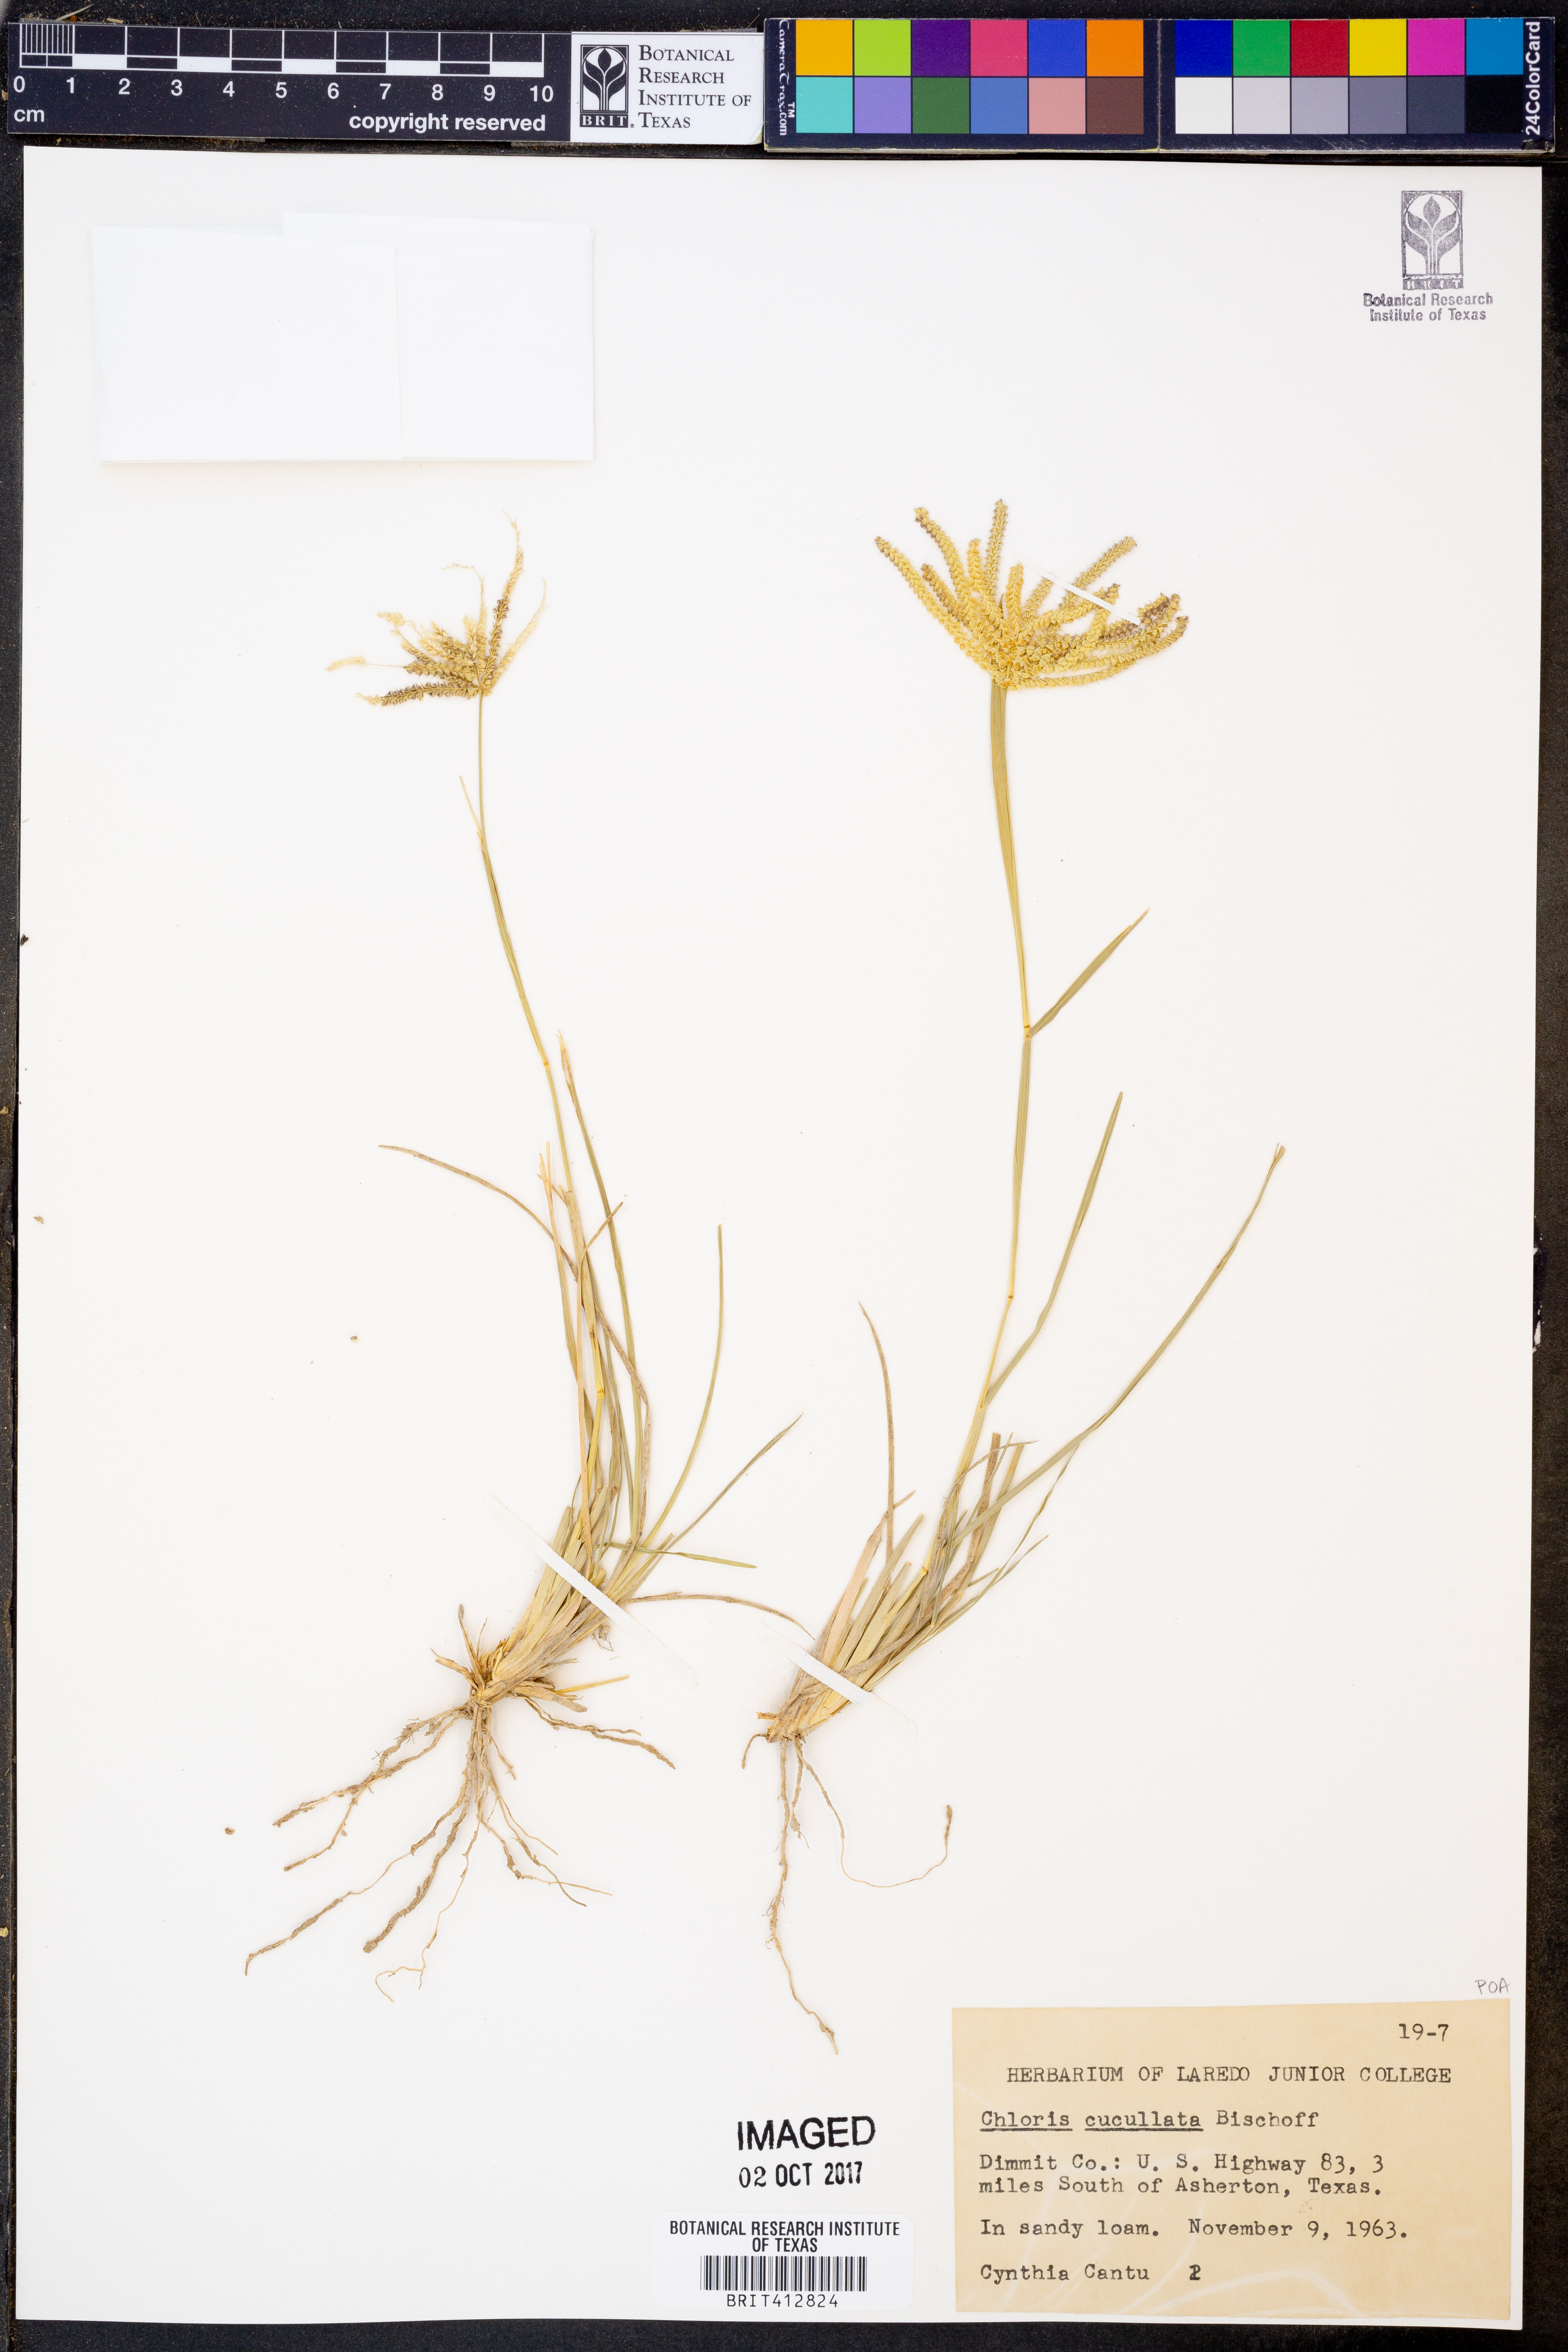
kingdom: Plantae
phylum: Tracheophyta
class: Liliopsida
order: Poales
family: Poaceae
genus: Chloris
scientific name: Chloris cucullata
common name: Hooded windmill grass
